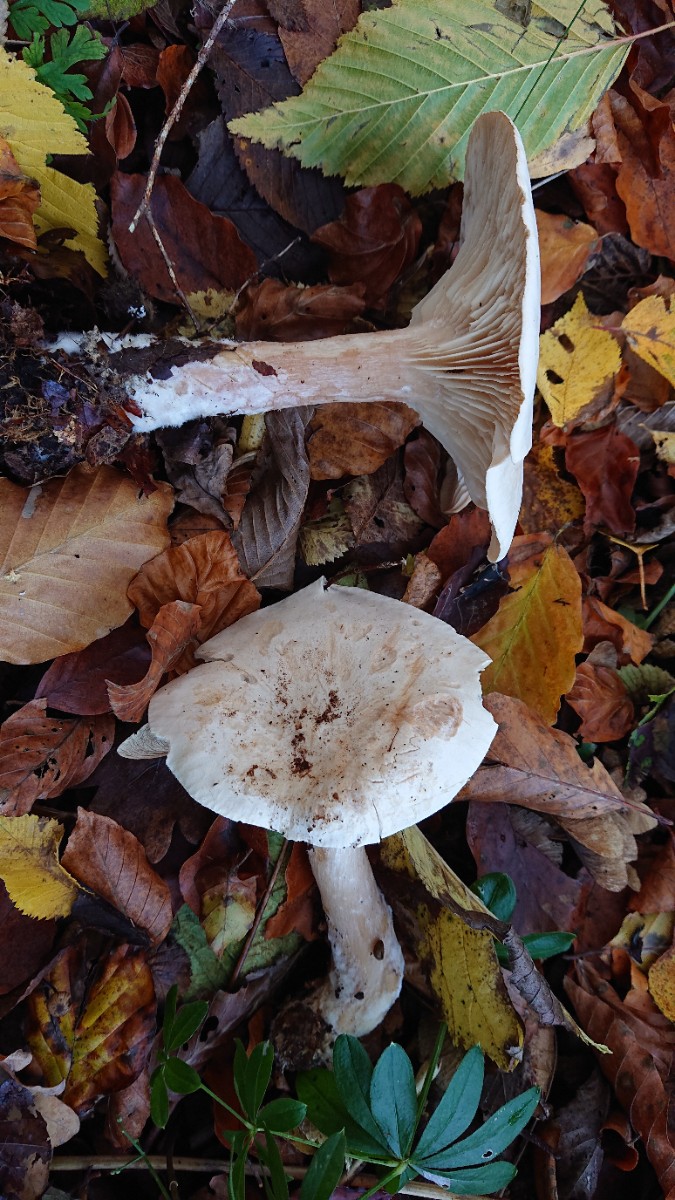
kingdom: Fungi
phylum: Basidiomycota
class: Agaricomycetes
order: Agaricales
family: Tricholomataceae
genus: Infundibulicybe
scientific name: Infundibulicybe geotropa
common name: stor tragthat
